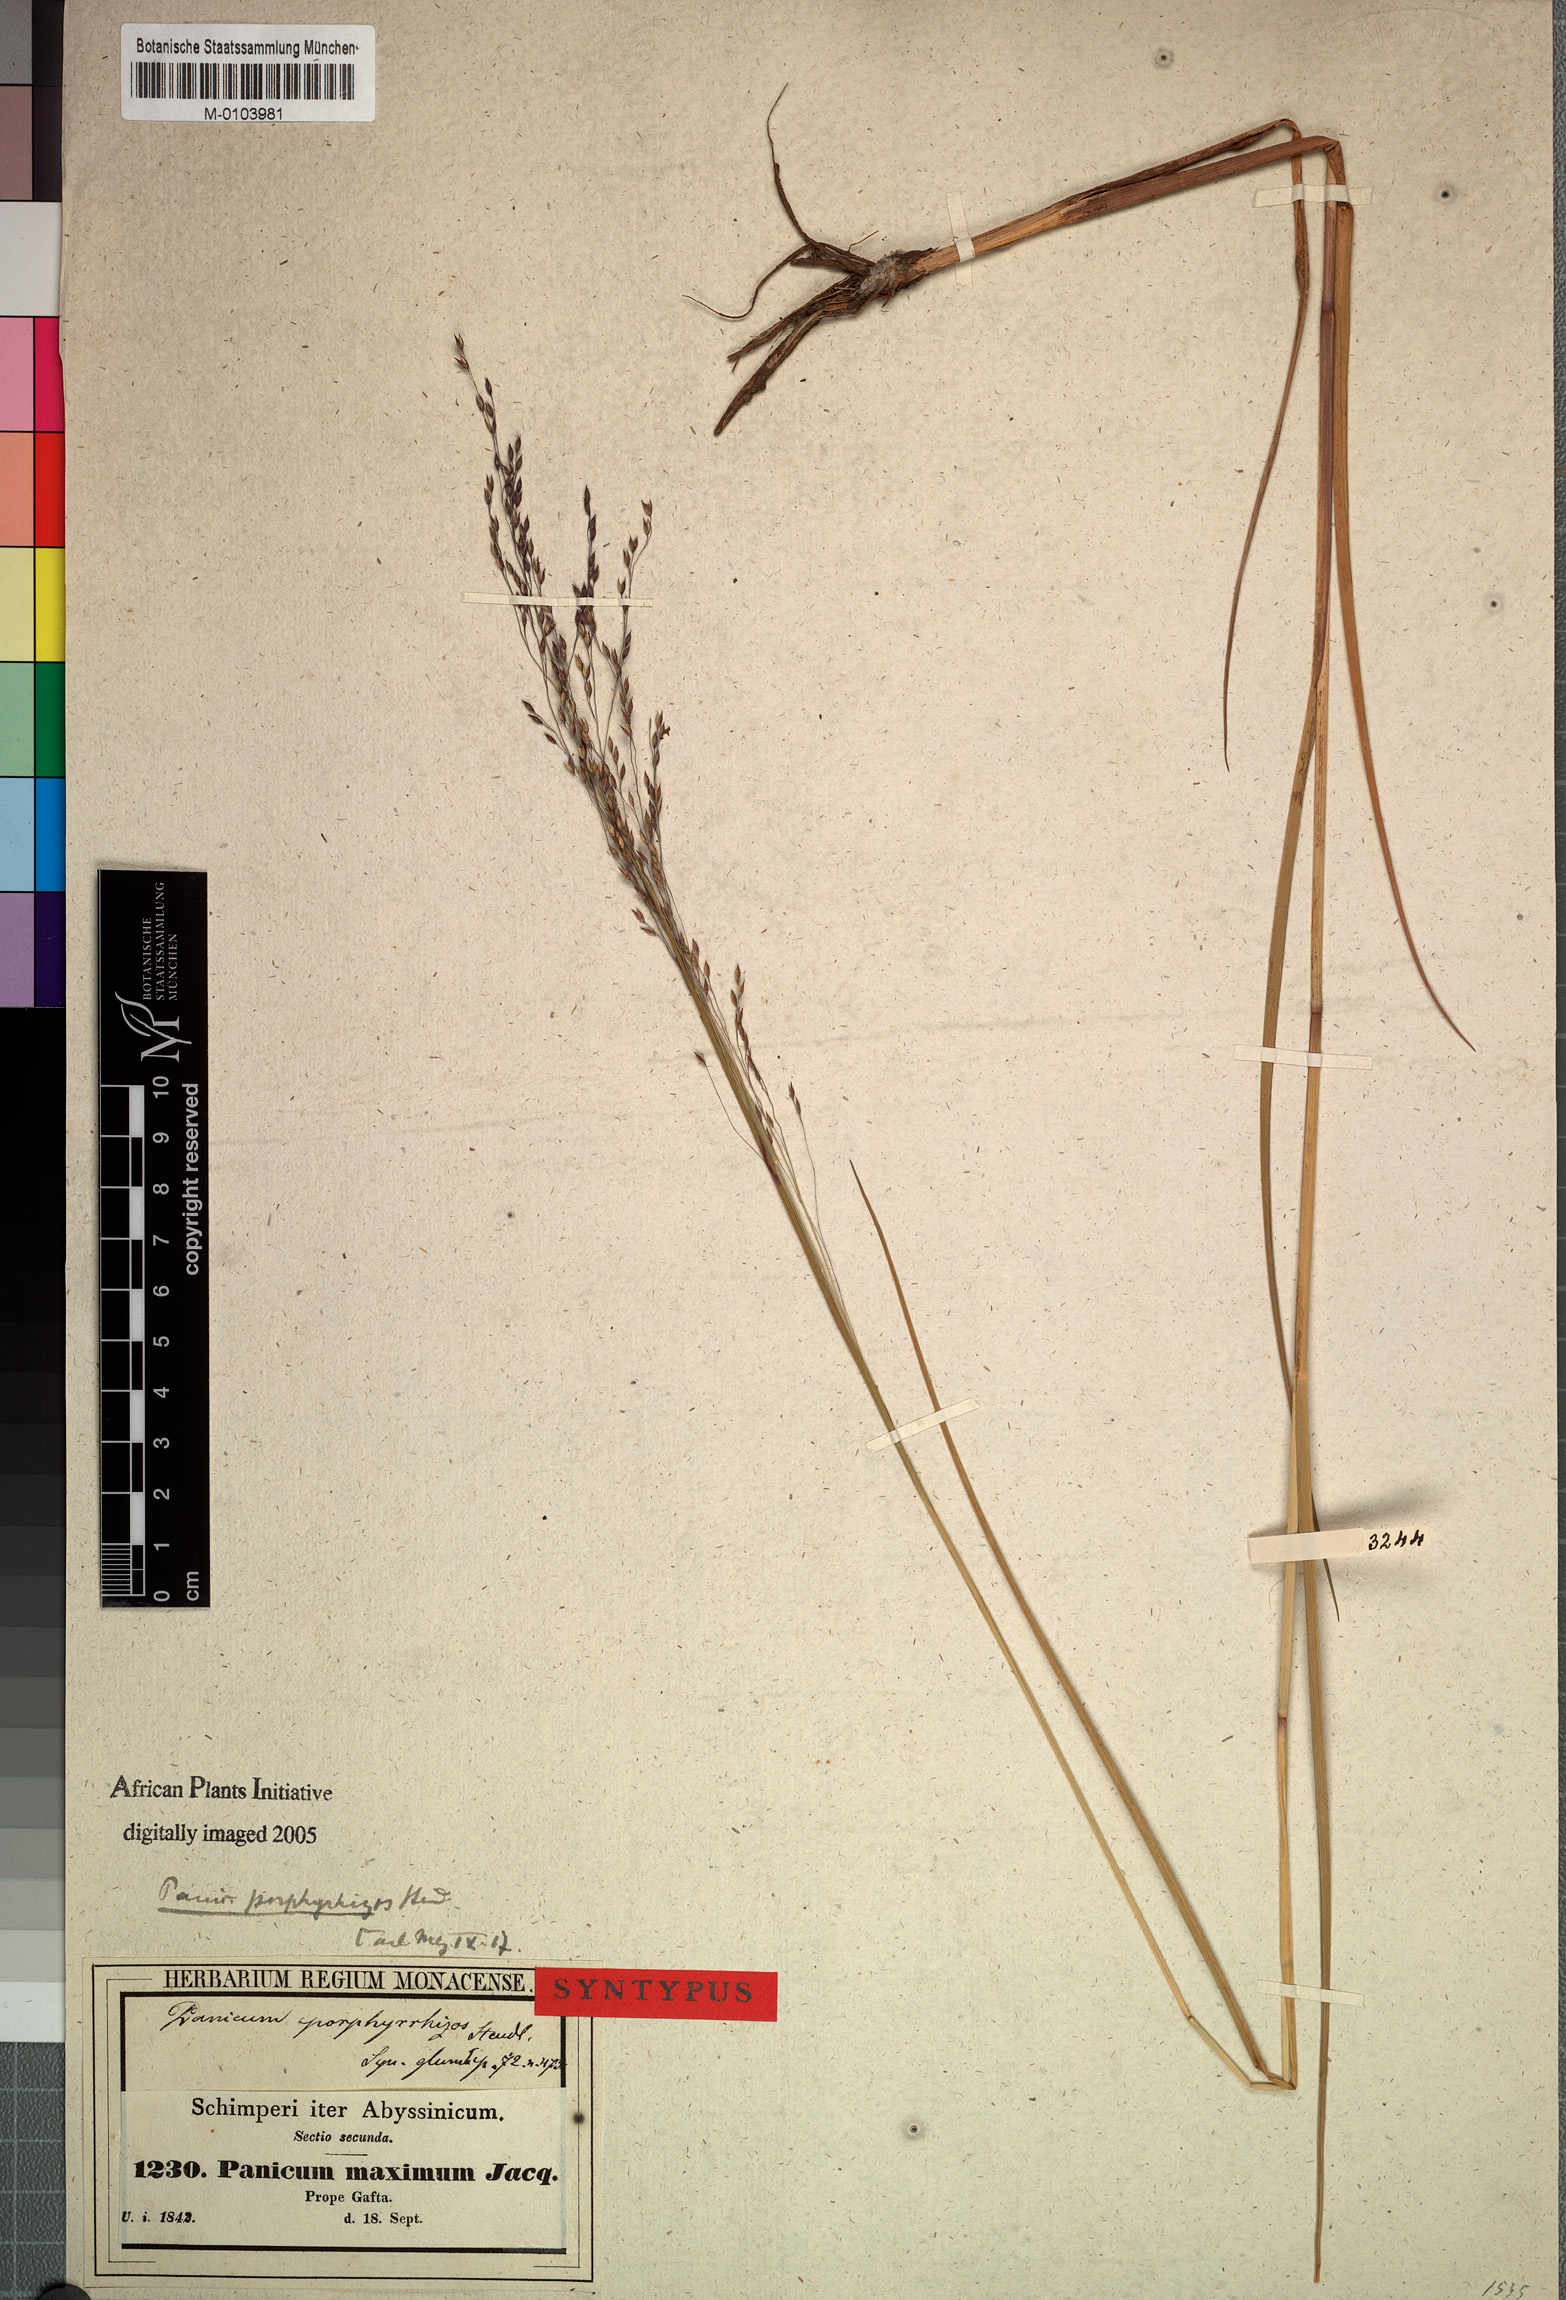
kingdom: Plantae
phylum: Tracheophyta
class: Liliopsida
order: Poales
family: Poaceae
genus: Panicum
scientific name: Panicum porphyrrhizos
